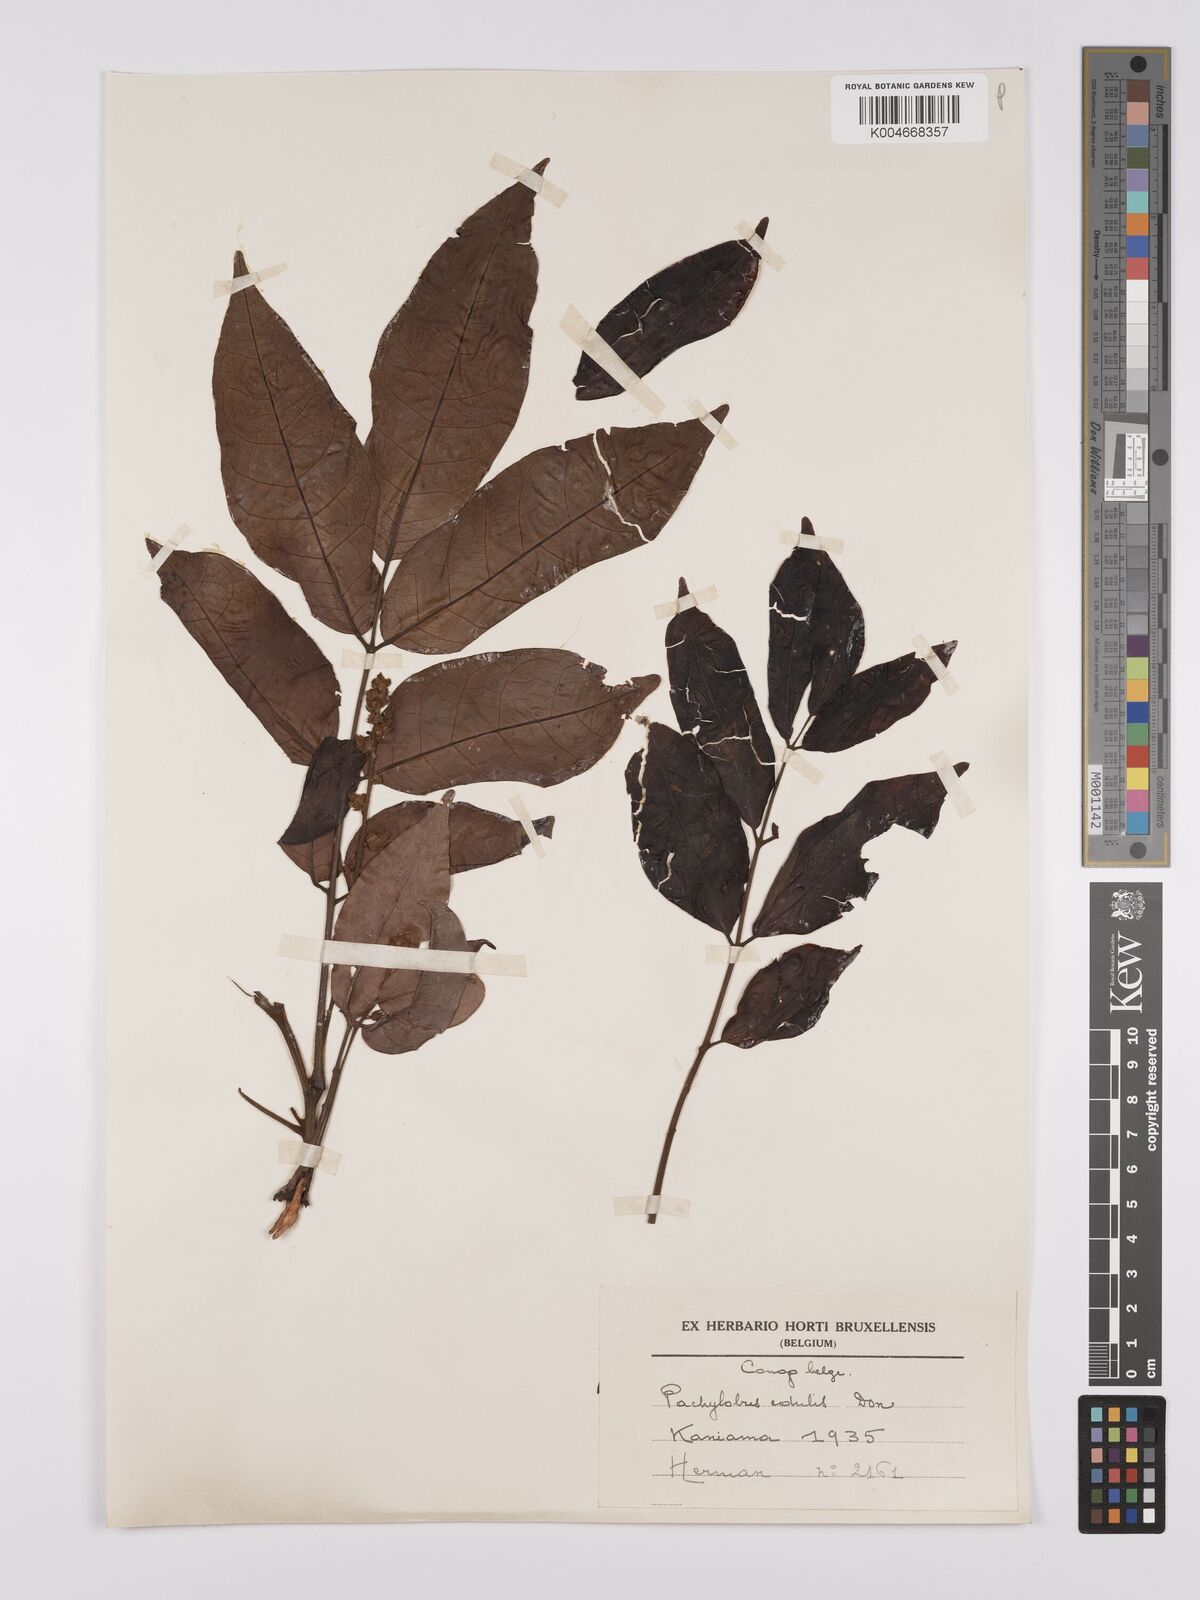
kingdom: Plantae
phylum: Tracheophyta
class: Magnoliopsida
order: Sapindales
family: Burseraceae
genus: Pachylobus
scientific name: Pachylobus edulis
